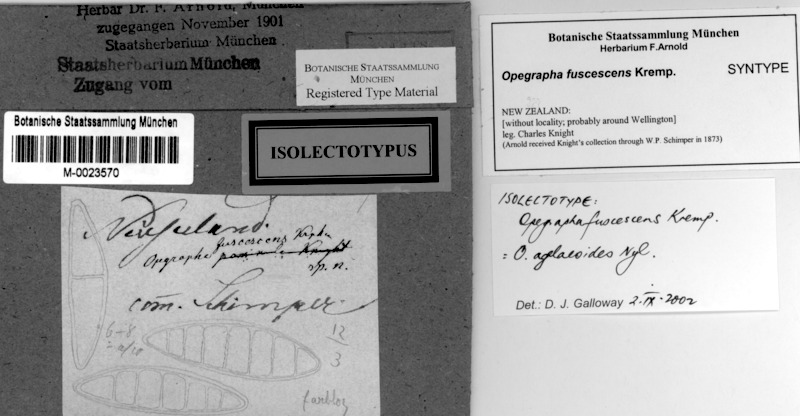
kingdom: Fungi
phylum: Ascomycota
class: Arthoniomycetes
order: Arthoniales
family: Opegraphaceae
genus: Opegrapha
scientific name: Opegrapha agelaeoides
